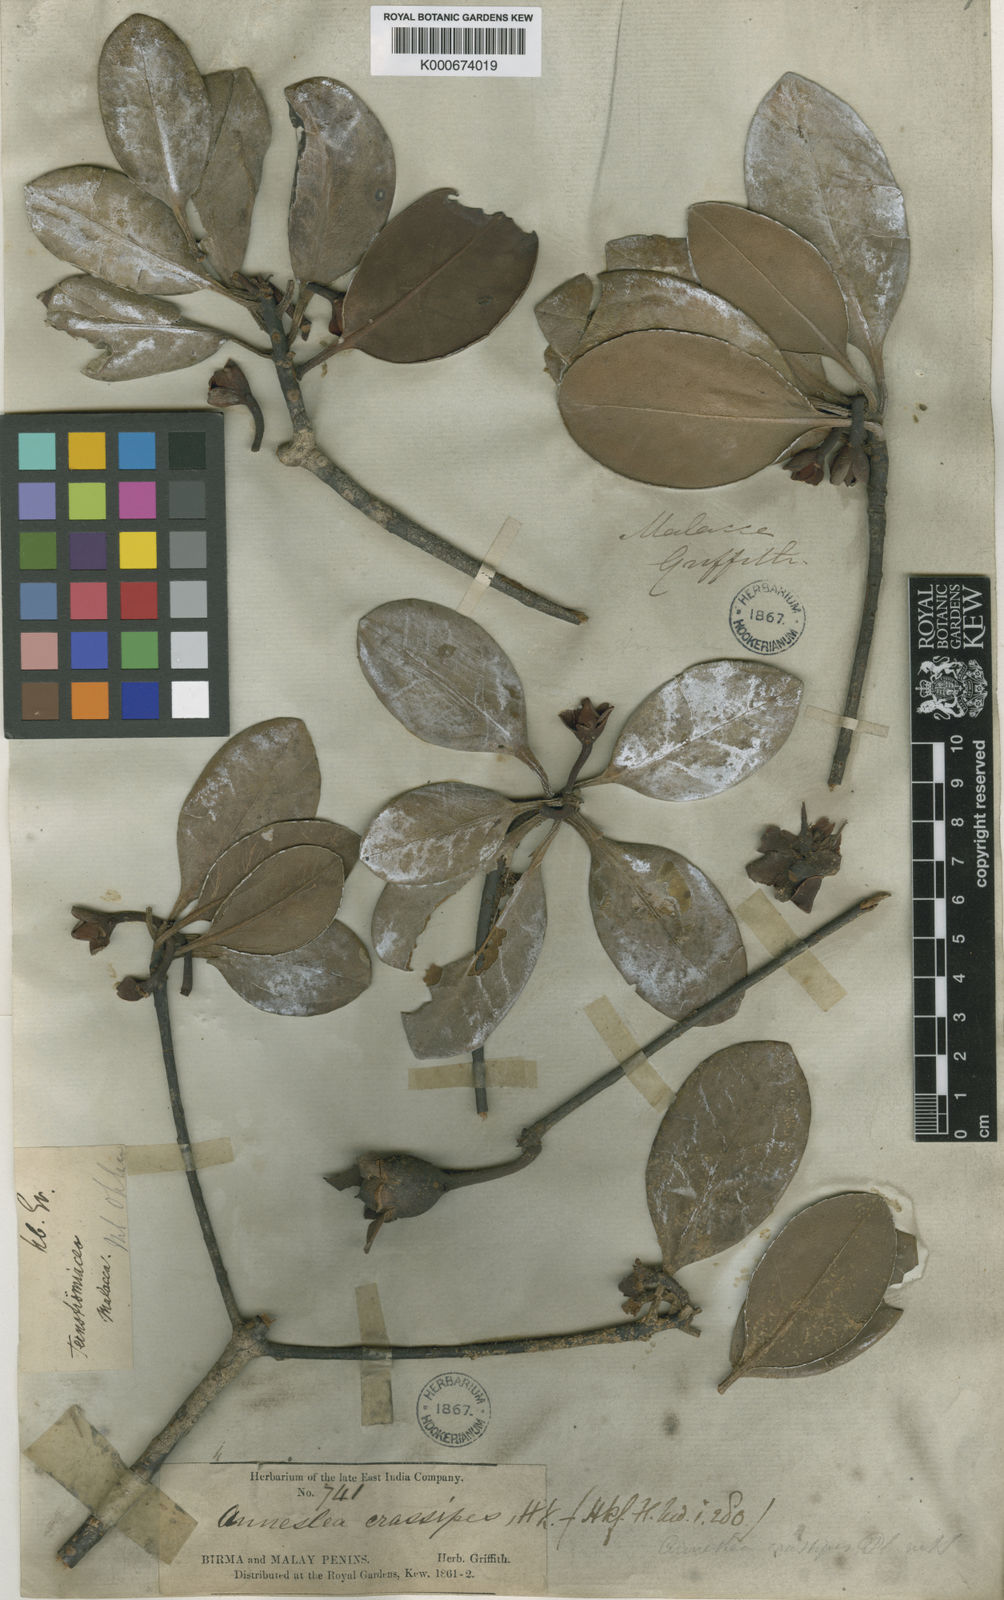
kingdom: Plantae
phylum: Tracheophyta
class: Magnoliopsida
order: Ericales
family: Pentaphylacaceae
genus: Anneslea
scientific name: Anneslea fragrans
